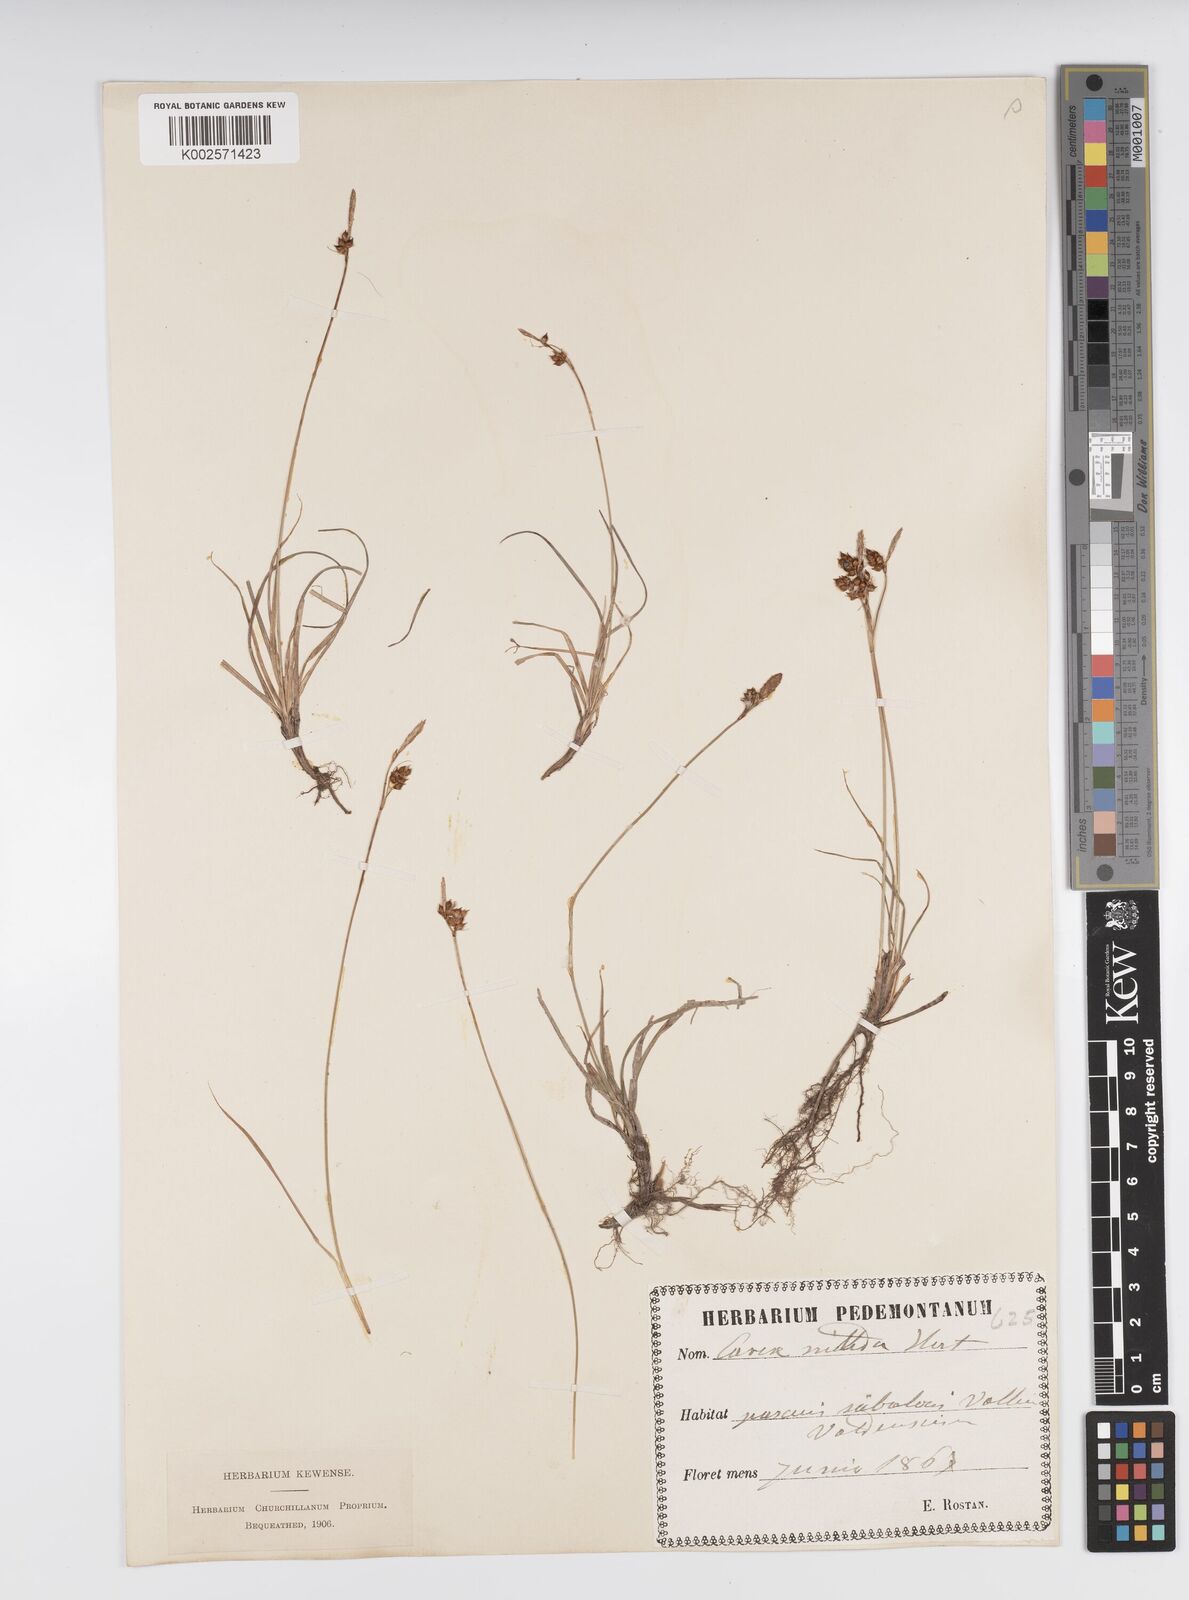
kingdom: Plantae
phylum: Tracheophyta
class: Liliopsida
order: Poales
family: Cyperaceae
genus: Carex
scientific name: Carex liparocarpos
